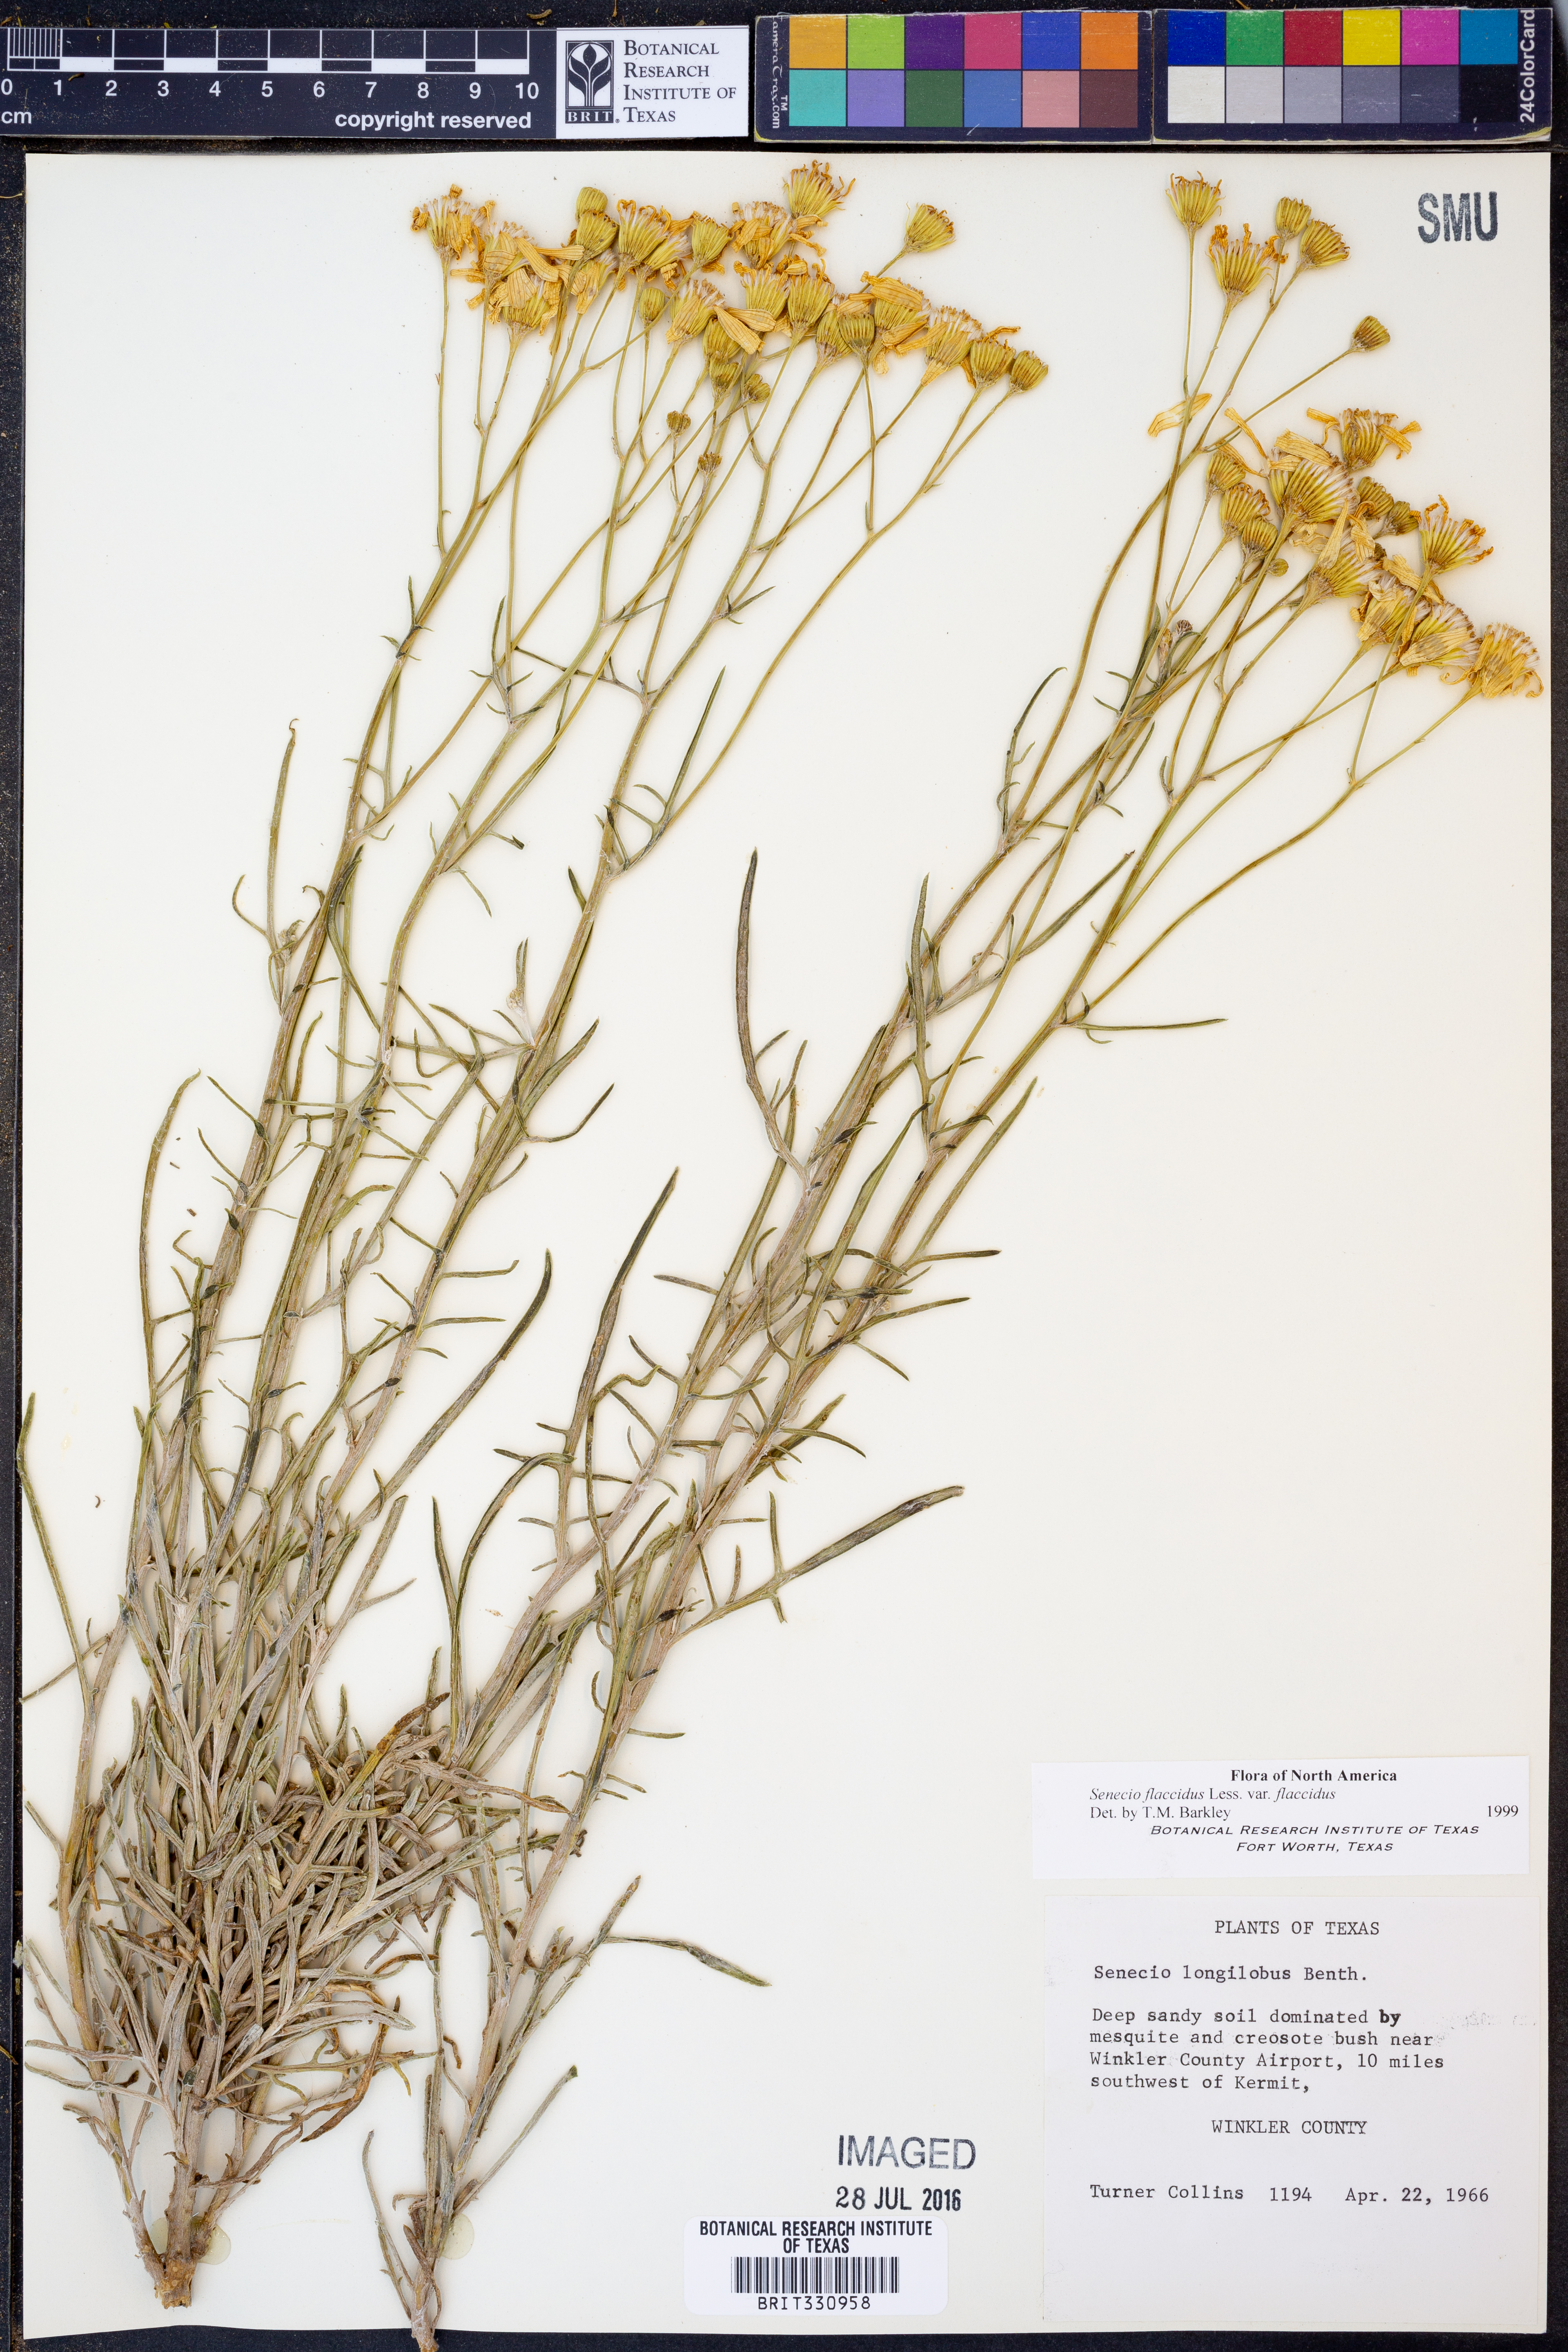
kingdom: Plantae
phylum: Tracheophyta
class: Magnoliopsida
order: Asterales
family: Asteraceae
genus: Senecio
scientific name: Senecio flaccidus
